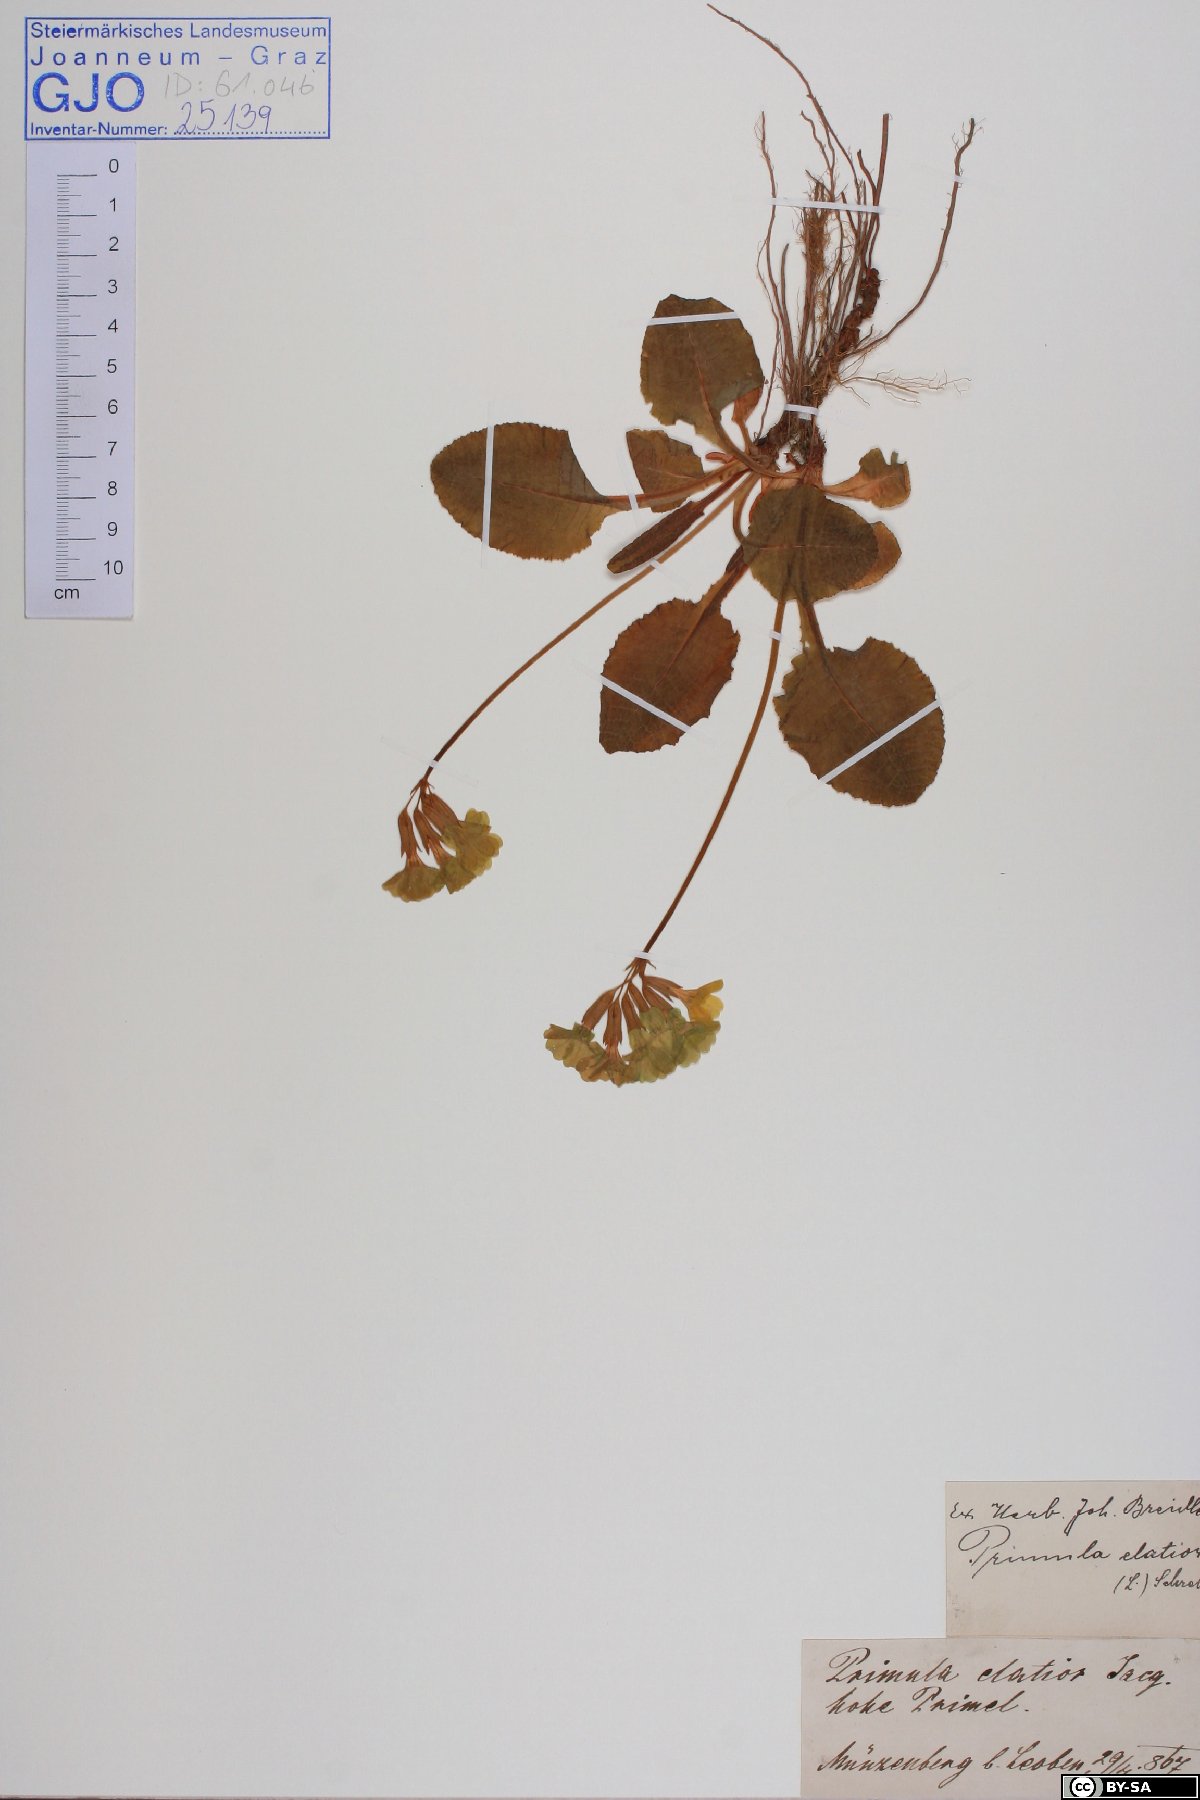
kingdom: Plantae
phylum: Tracheophyta
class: Magnoliopsida
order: Ericales
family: Primulaceae
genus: Primula
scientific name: Primula elatior
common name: Oxlip
